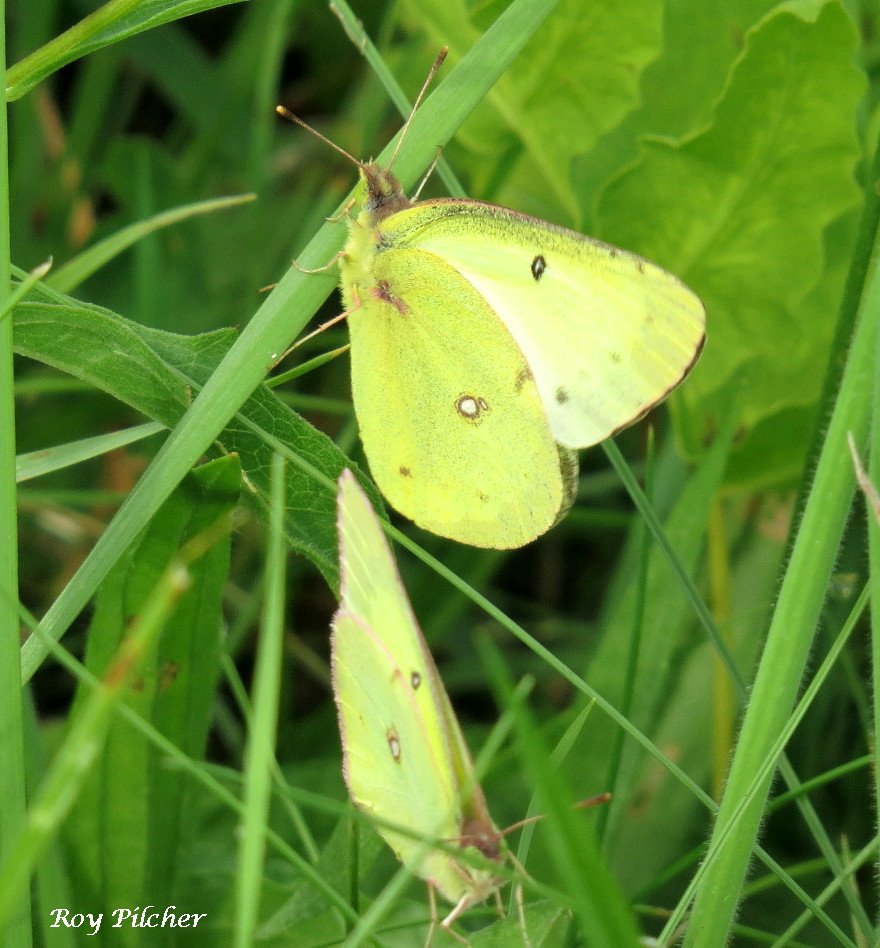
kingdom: Animalia
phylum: Arthropoda
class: Insecta
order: Lepidoptera
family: Pieridae
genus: Colias
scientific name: Colias philodice
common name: Clouded Sulphur
